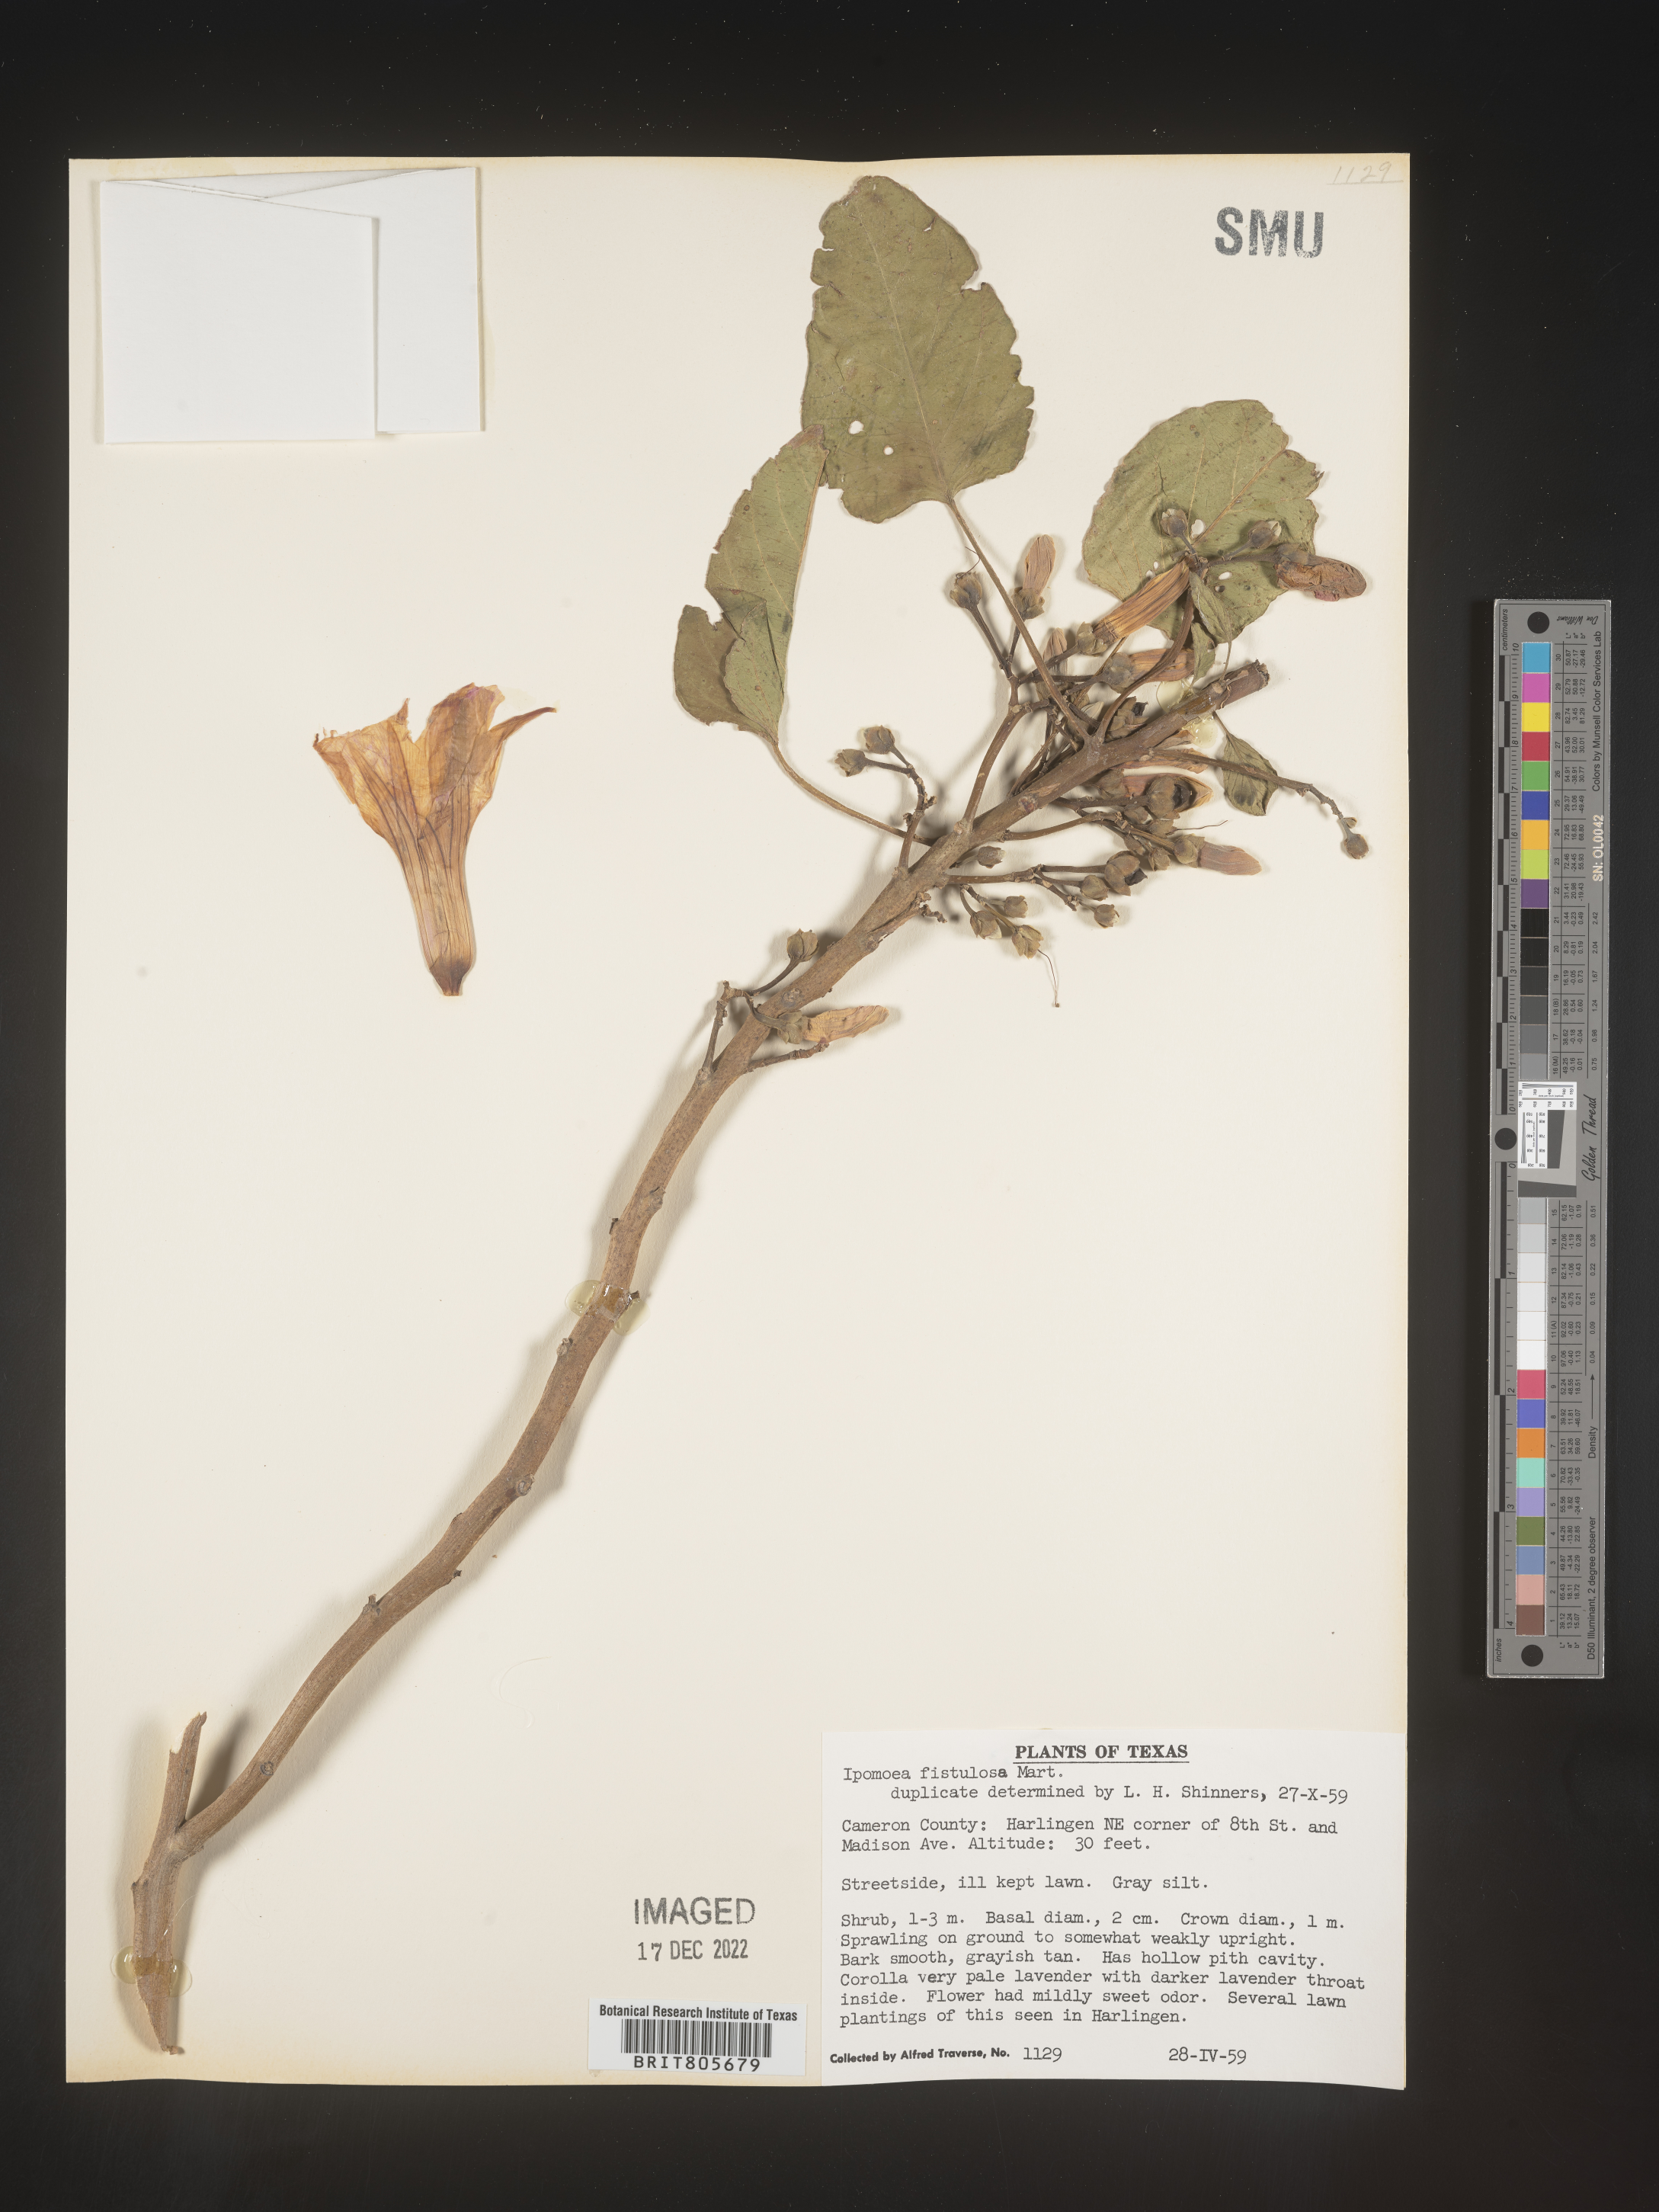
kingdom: Plantae
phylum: Tracheophyta
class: Magnoliopsida
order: Solanales
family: Convolvulaceae
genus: Ipomoea
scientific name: Ipomoea carnea
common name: Morning-glory
